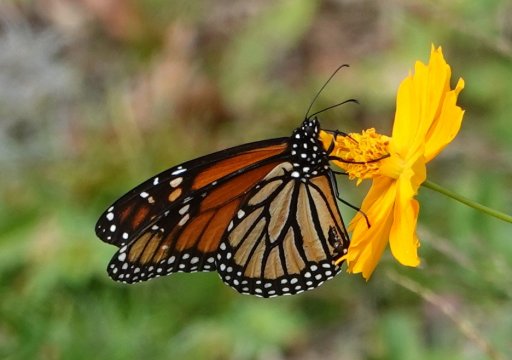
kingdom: Animalia
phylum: Arthropoda
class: Insecta
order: Lepidoptera
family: Nymphalidae
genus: Danaus
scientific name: Danaus plexippus
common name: Monarch
